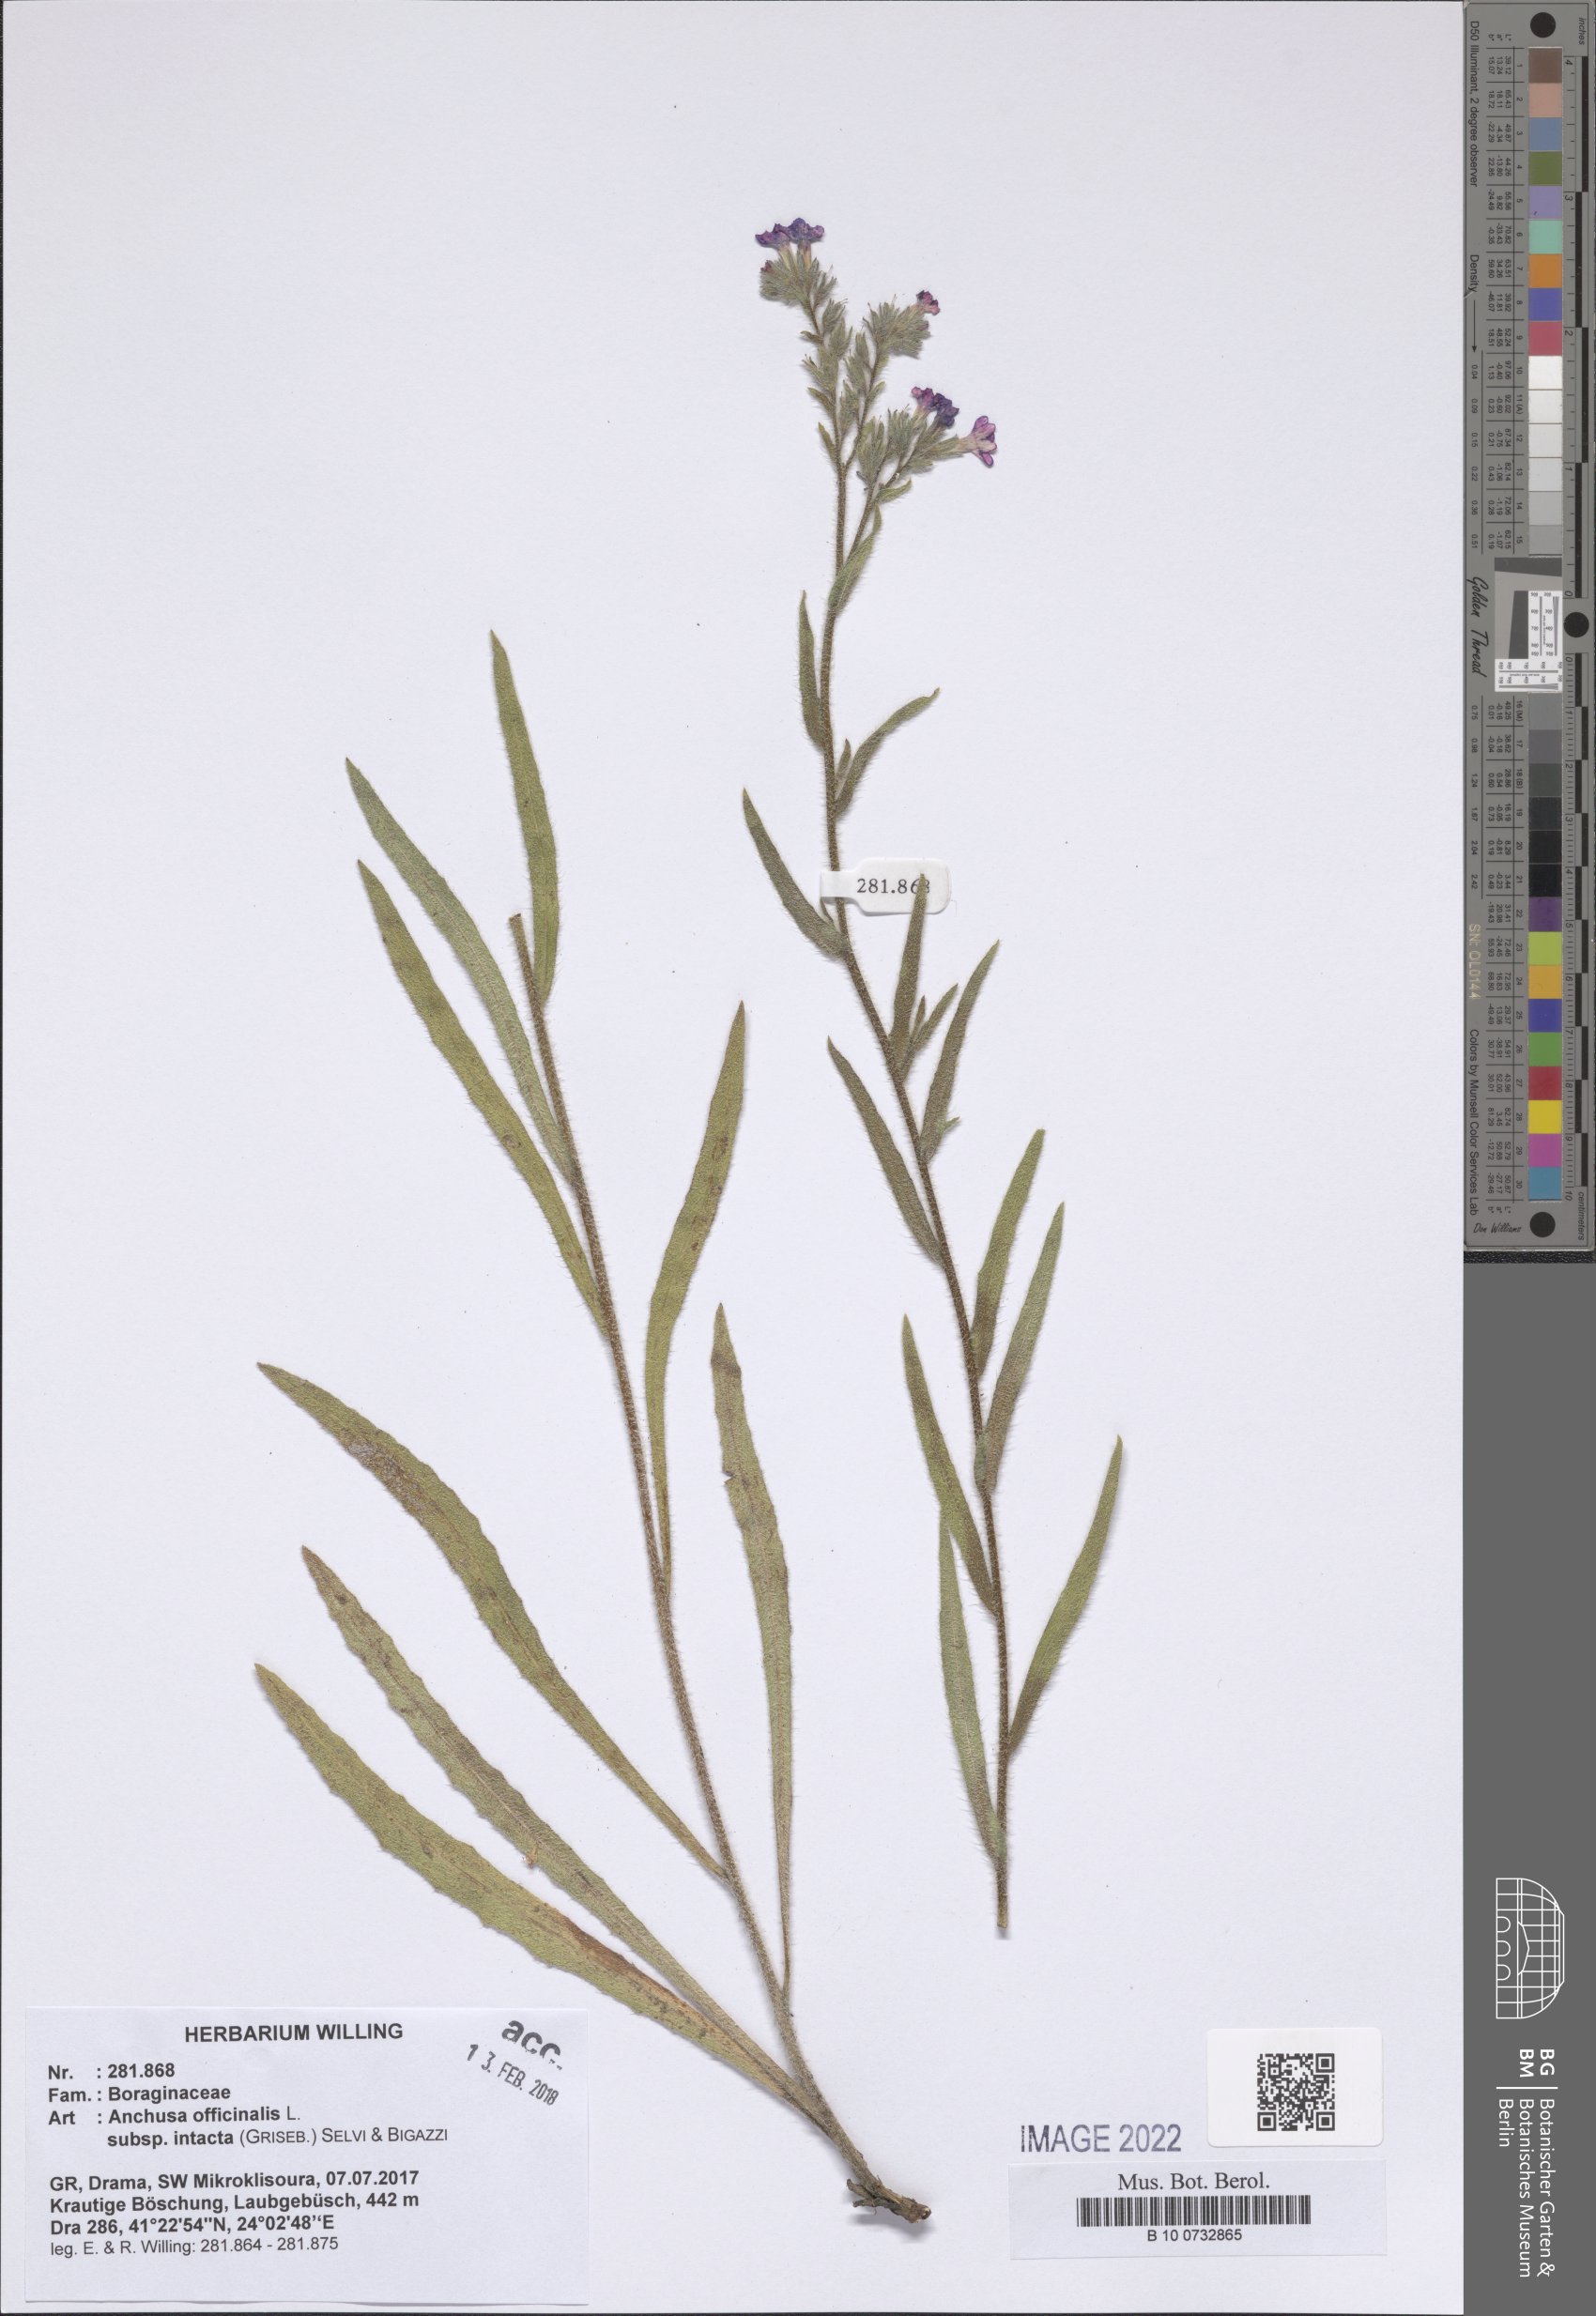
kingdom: Plantae
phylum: Tracheophyta
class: Magnoliopsida
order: Boraginales
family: Boraginaceae
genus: Anchusa
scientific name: Anchusa officinalis
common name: Alkanet
